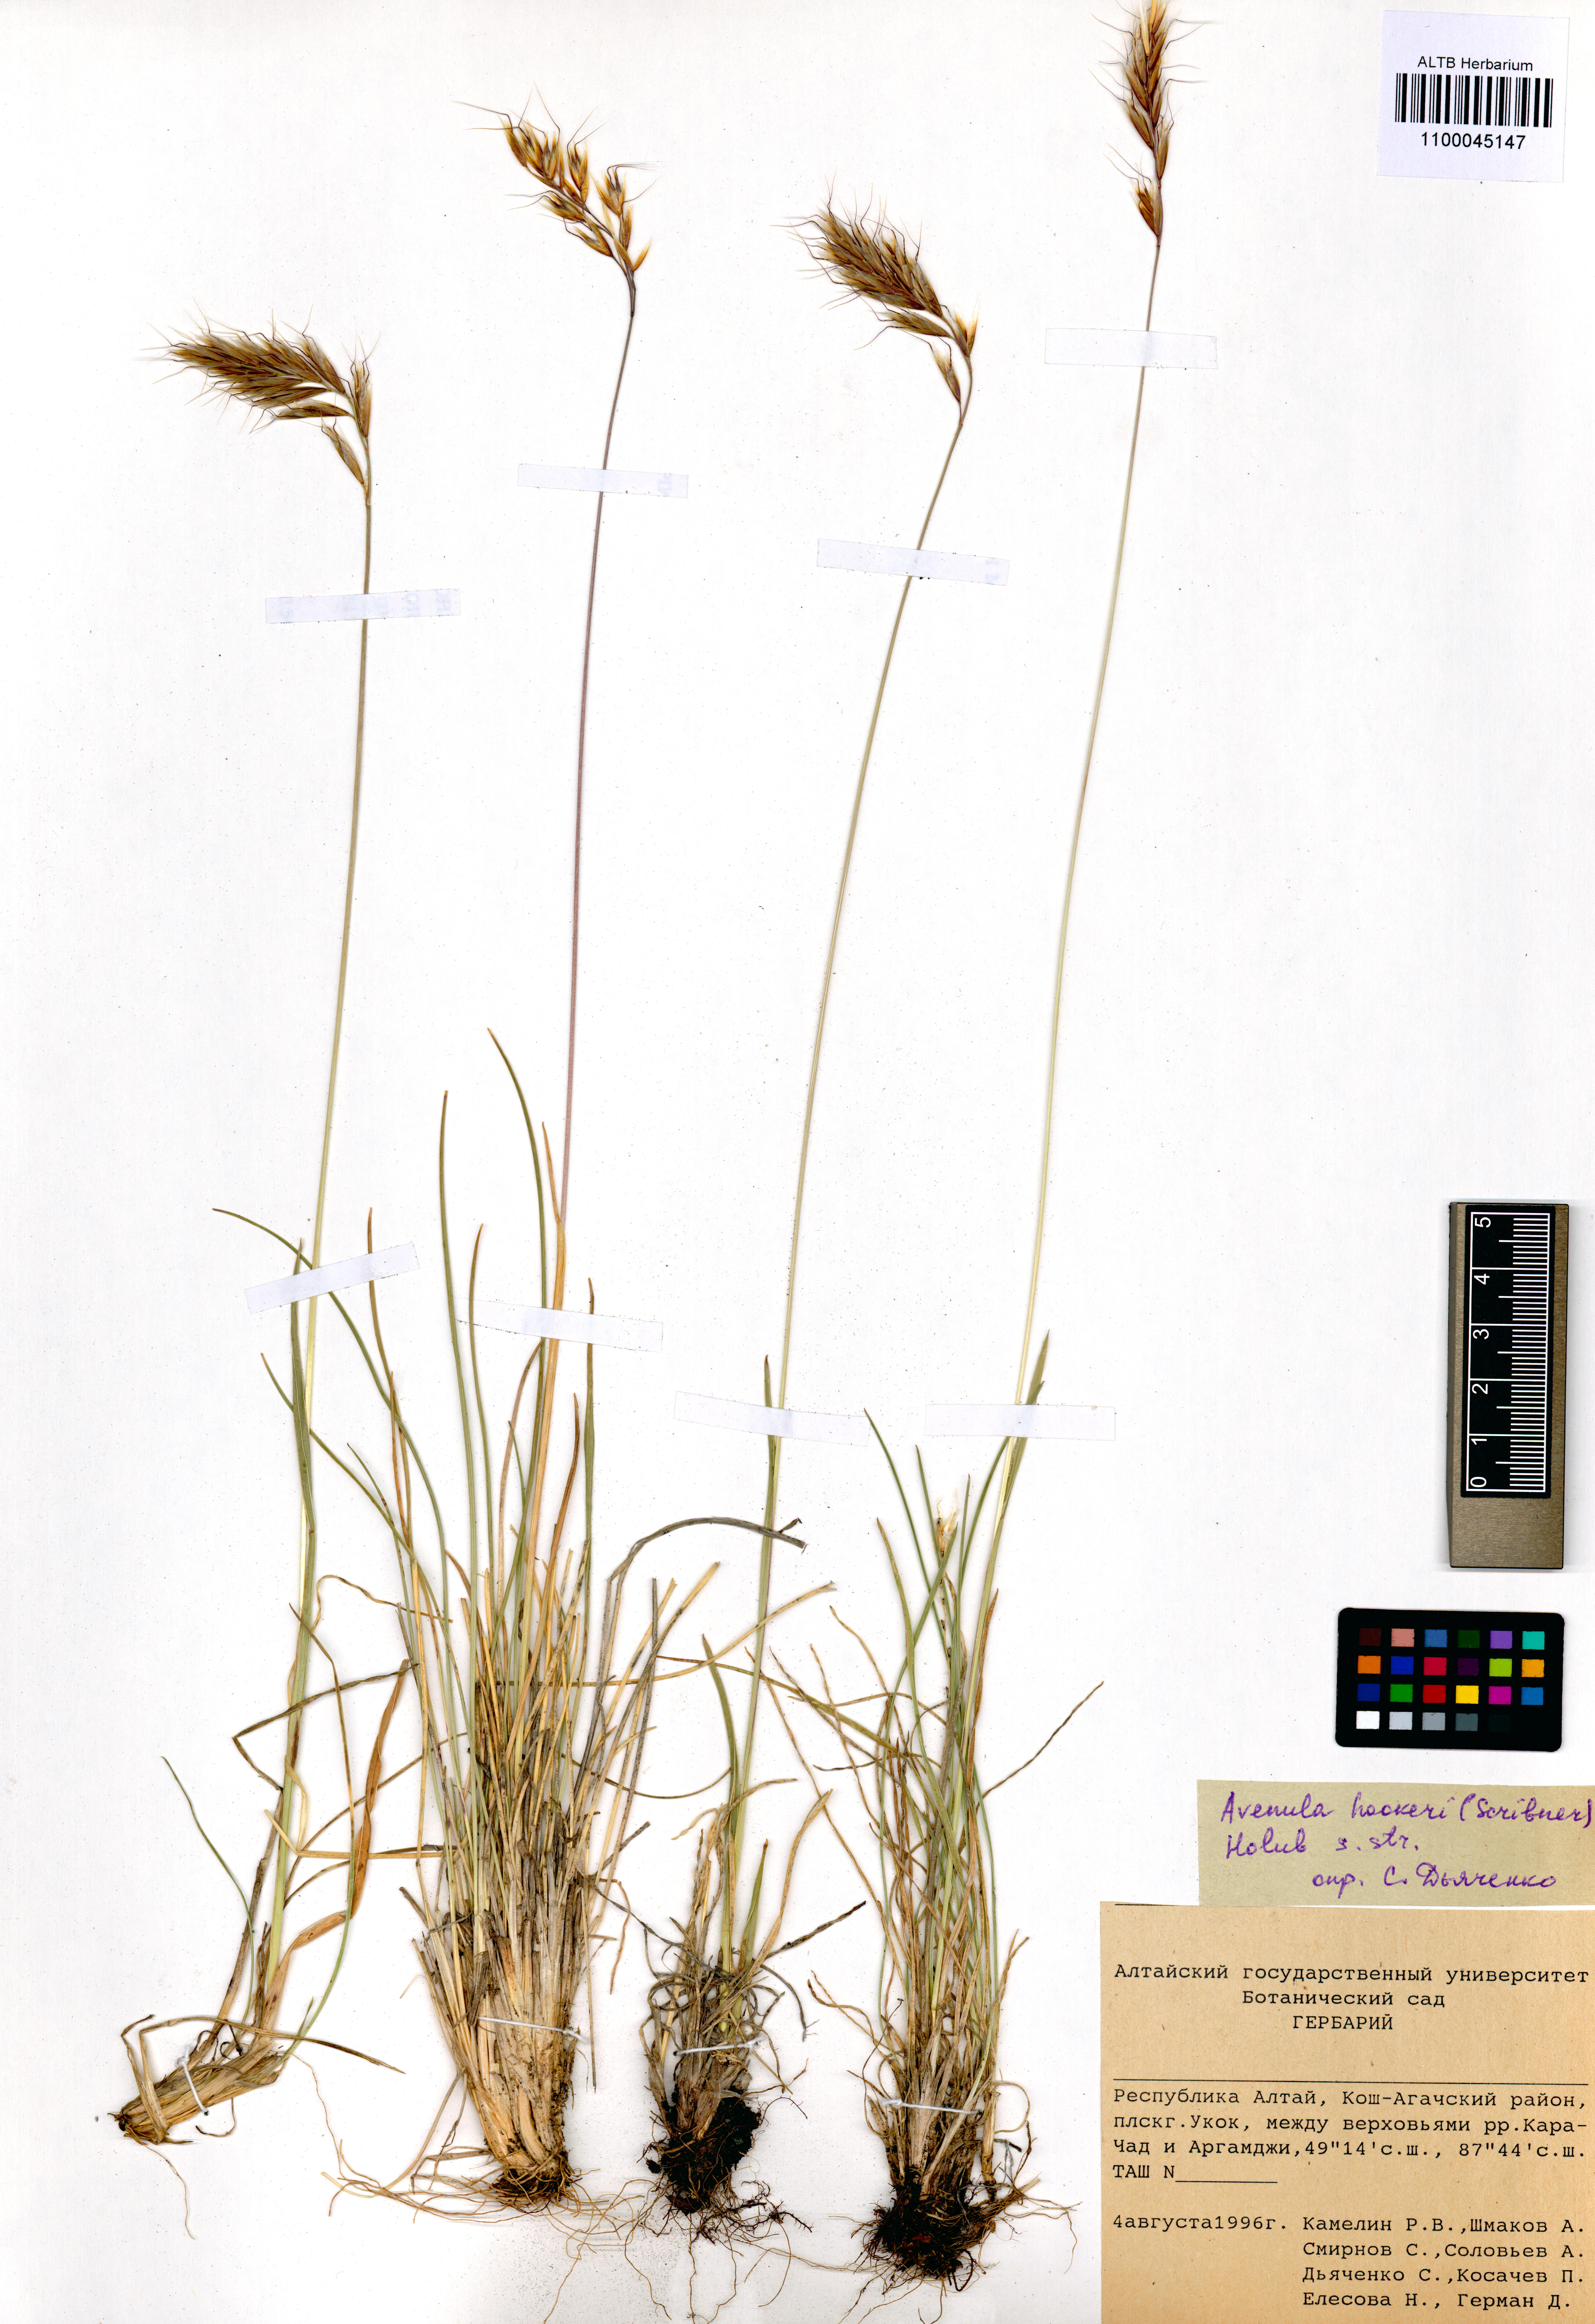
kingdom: Plantae
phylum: Tracheophyta
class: Liliopsida
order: Poales
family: Poaceae
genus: Helictochloa
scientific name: Helictochloa hookeri
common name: Hooker's alpine oatgrass
